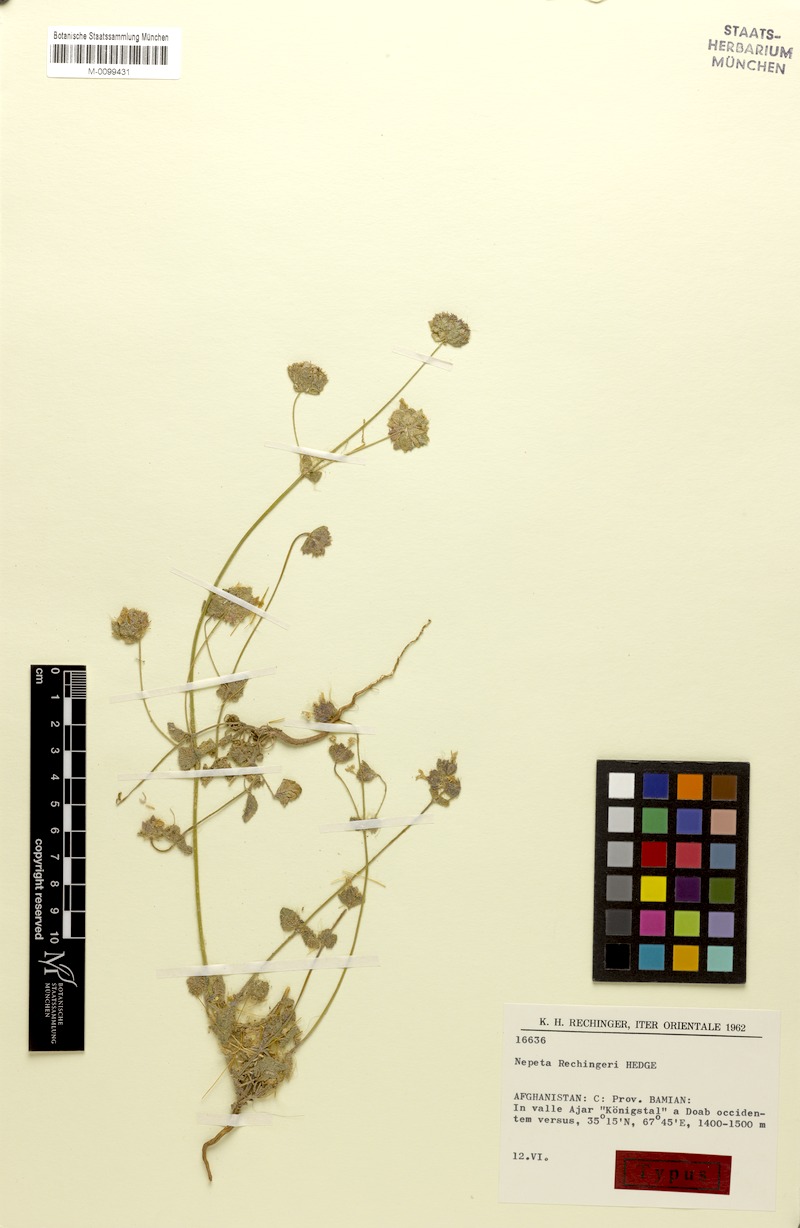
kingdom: Plantae
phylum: Tracheophyta
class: Magnoliopsida
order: Lamiales
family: Lamiaceae
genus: Nepeta
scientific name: Nepeta rechingeri
